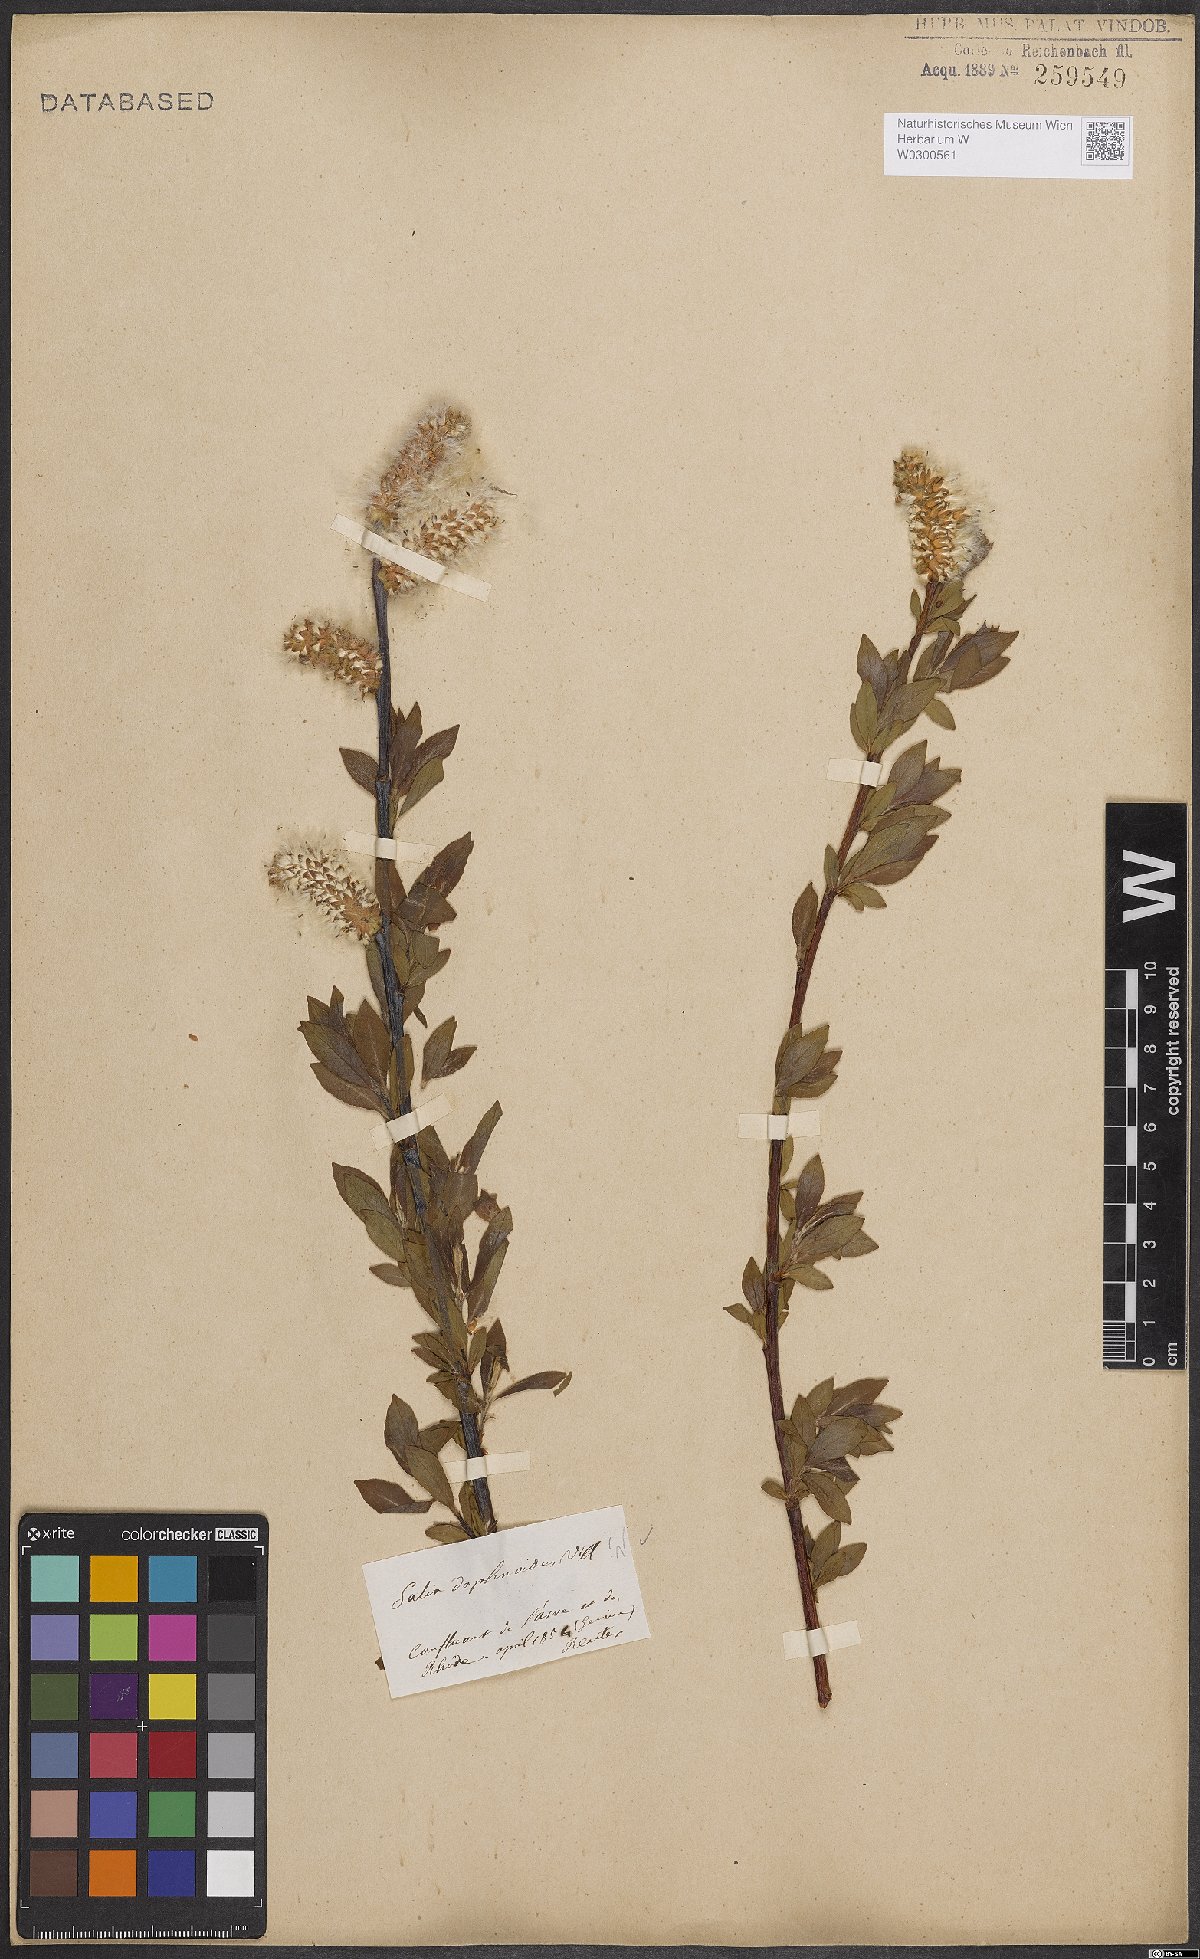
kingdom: Plantae
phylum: Tracheophyta
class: Magnoliopsida
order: Malpighiales
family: Salicaceae
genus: Salix
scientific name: Salix daphnoides
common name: European violet-willow
